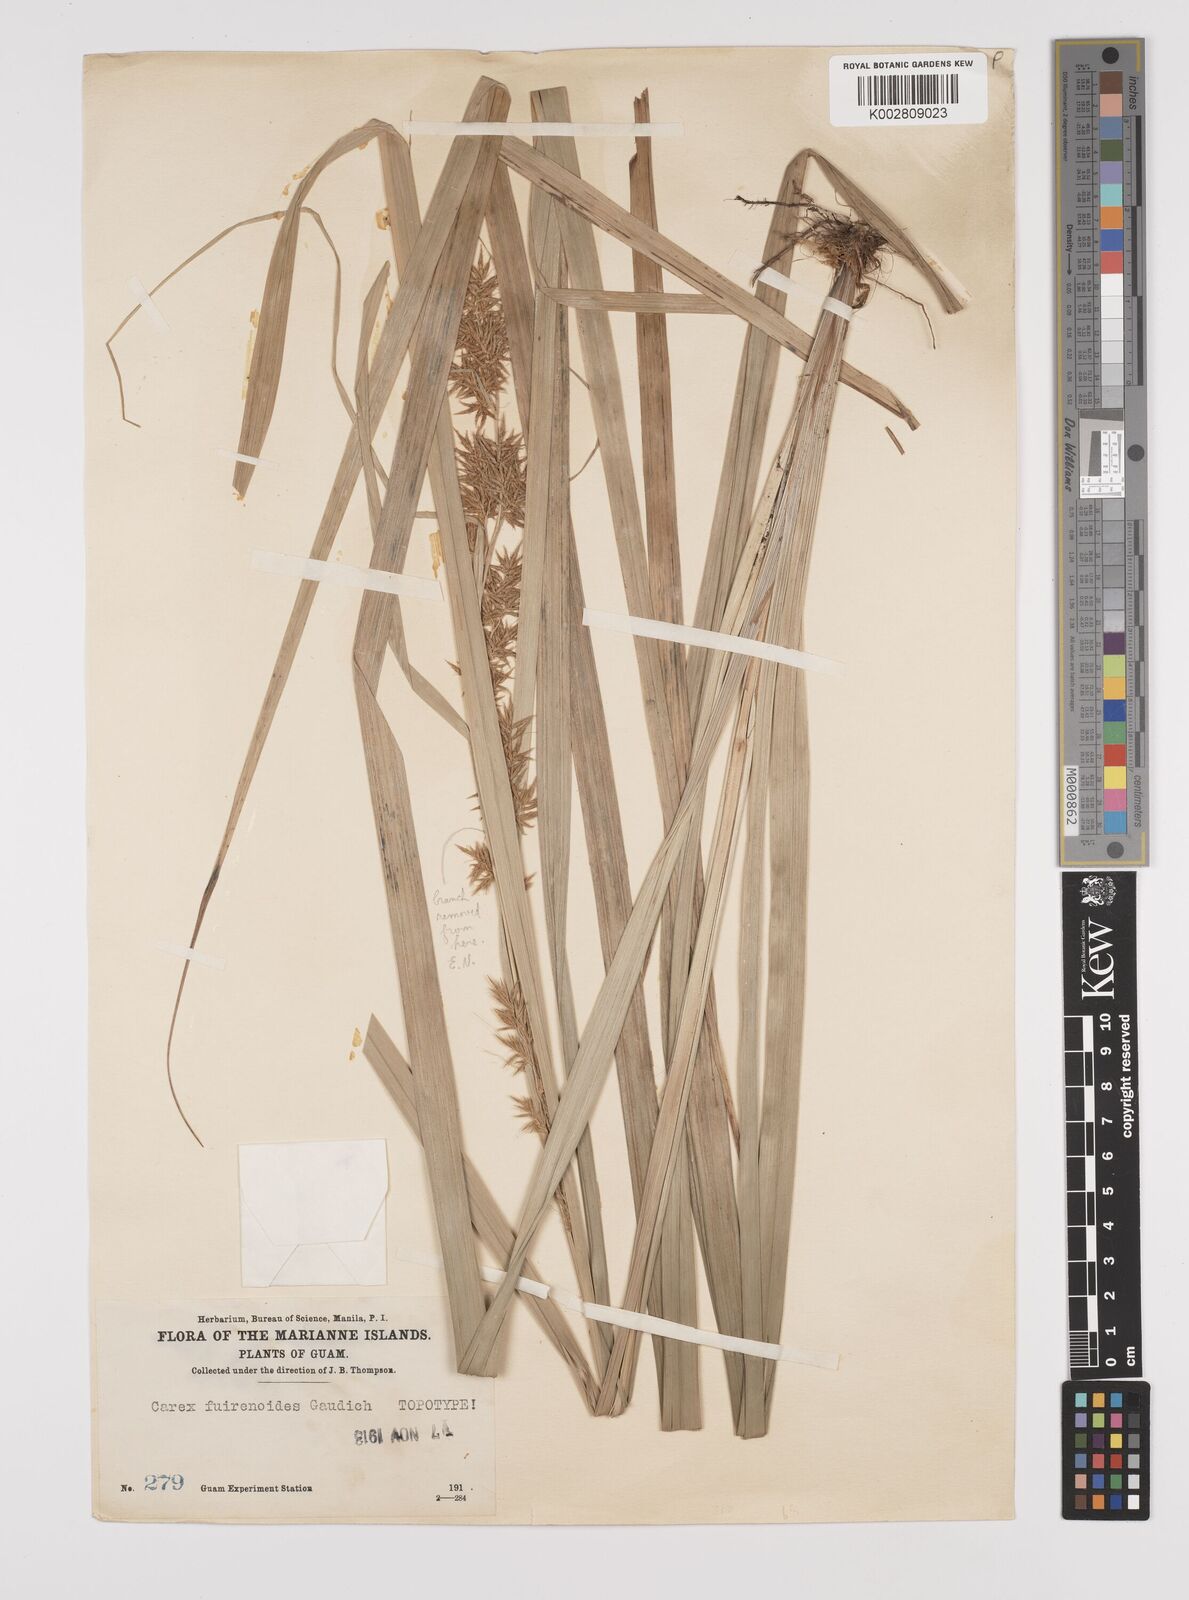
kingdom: Plantae
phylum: Tracheophyta
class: Liliopsida
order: Poales
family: Cyperaceae
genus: Carex
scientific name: Carex indica
